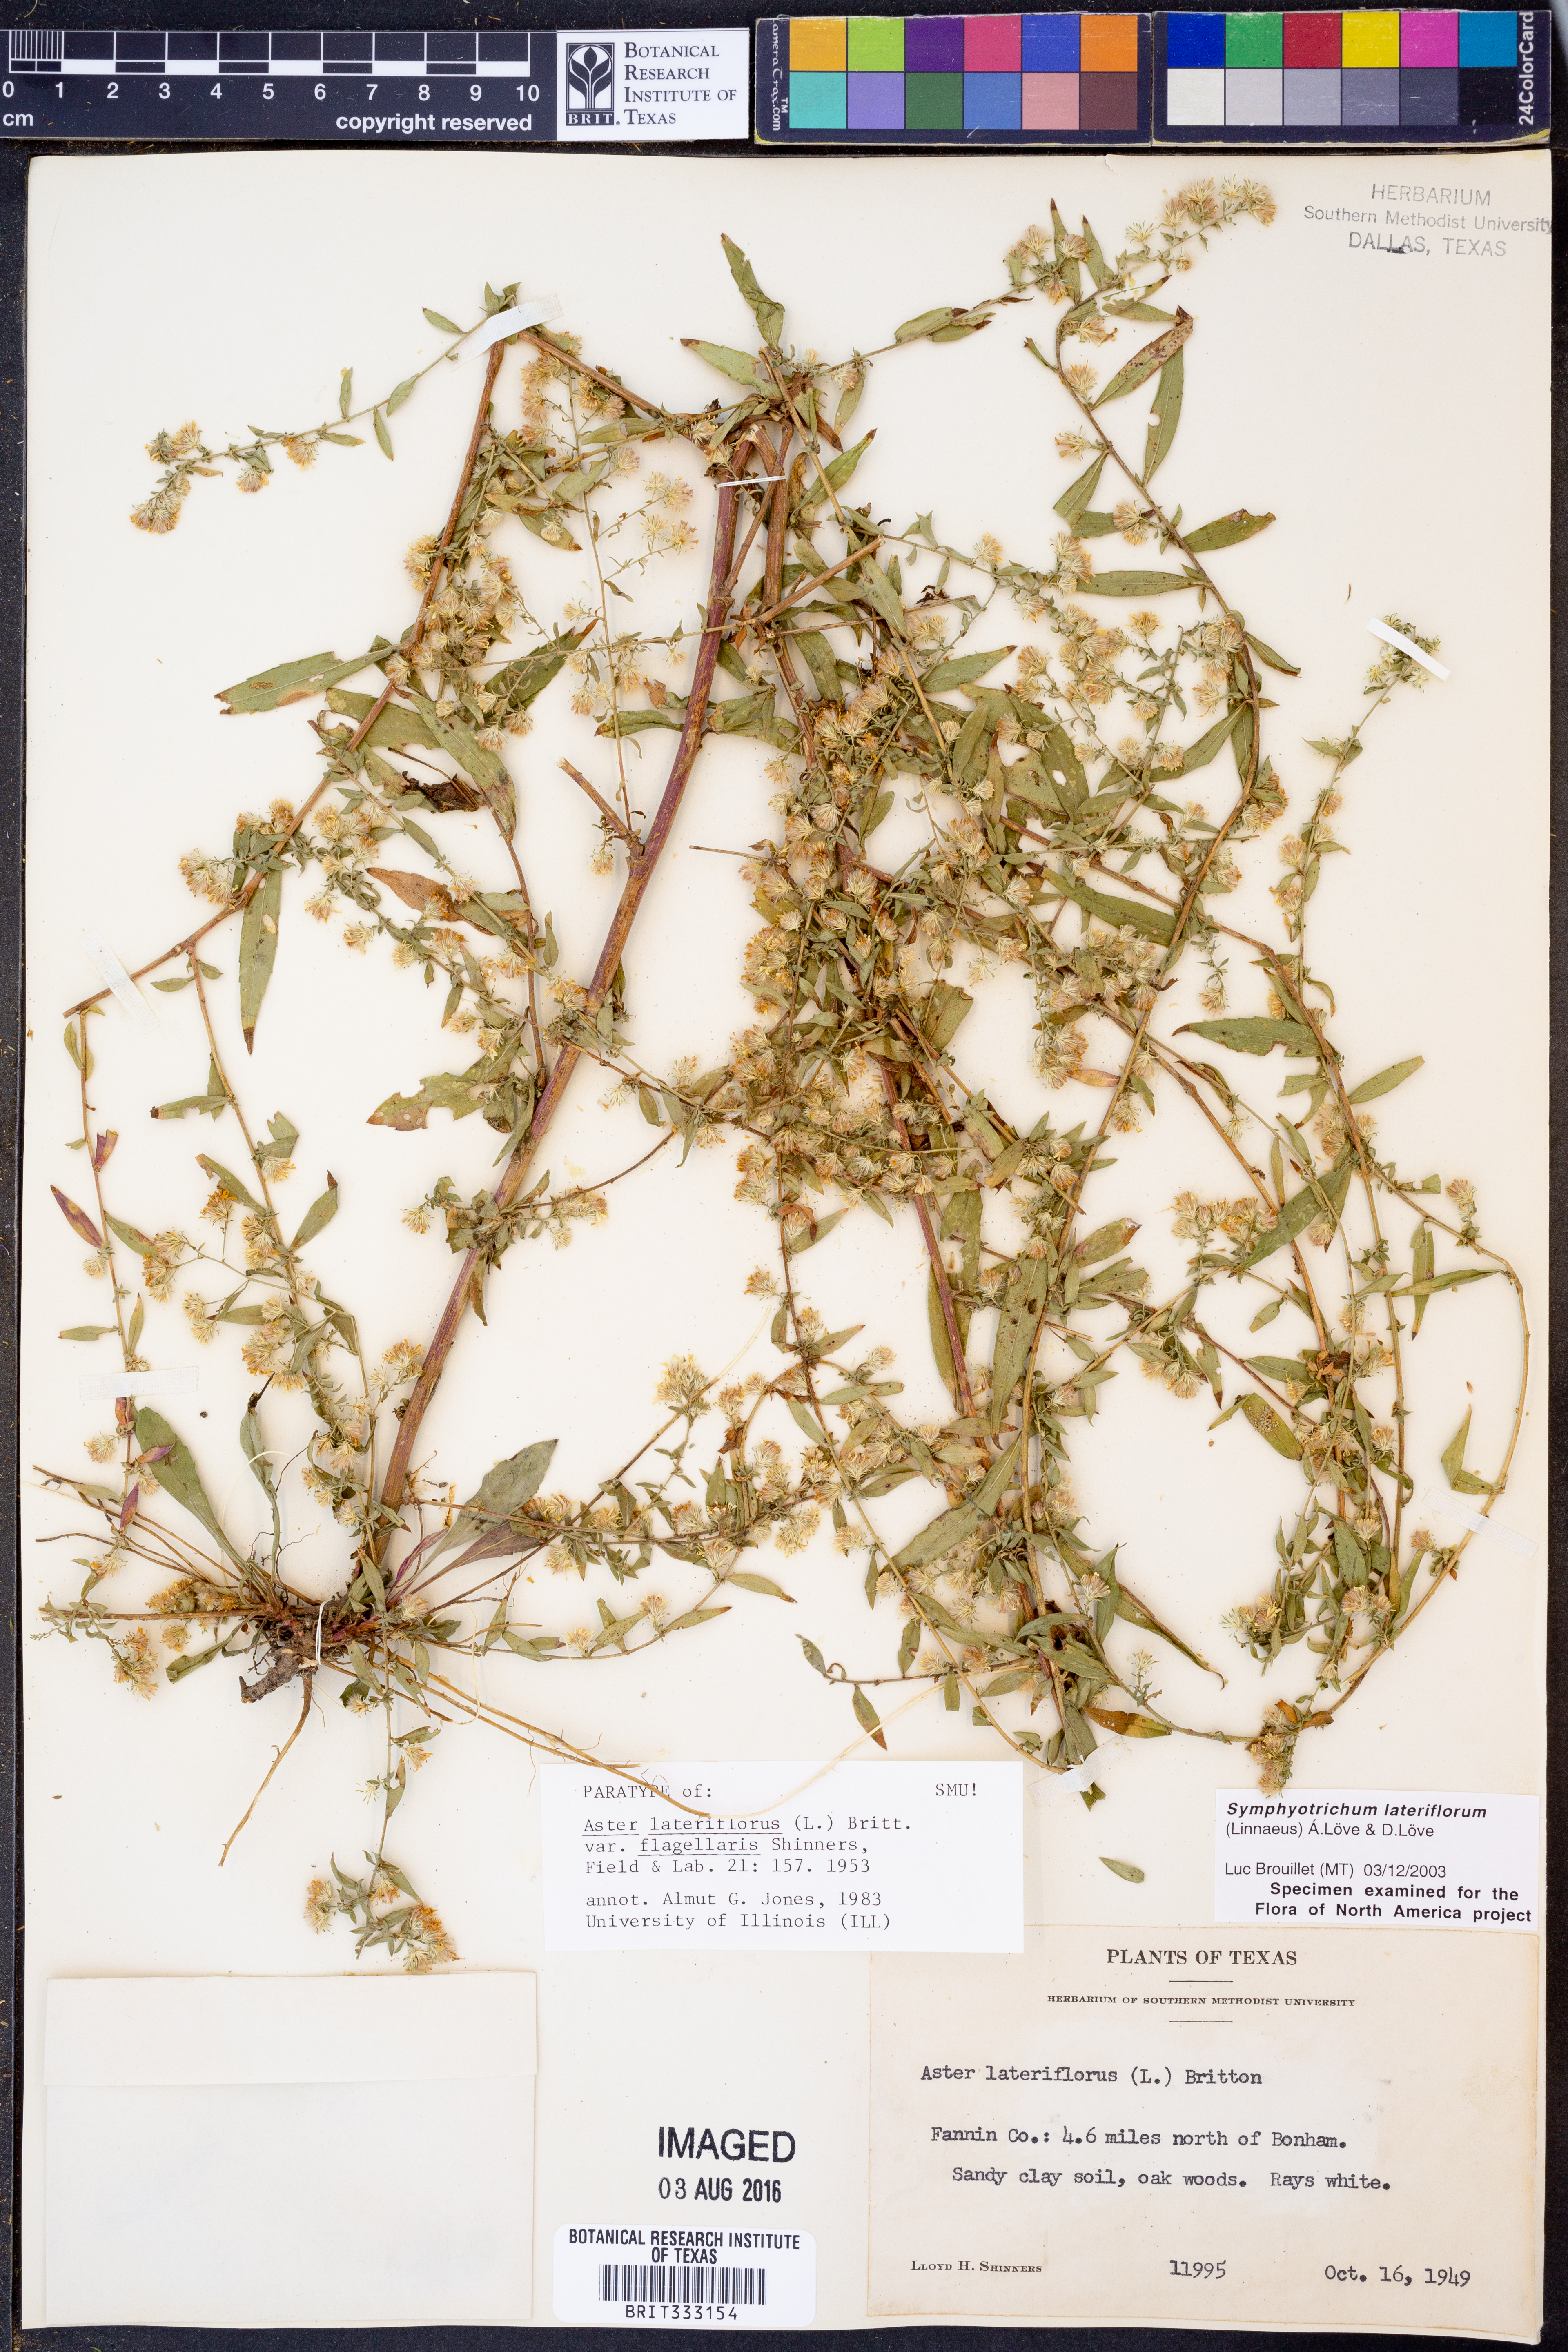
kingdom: Plantae
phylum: Tracheophyta
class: Magnoliopsida
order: Asterales
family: Asteraceae
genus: Symphyotrichum
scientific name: Symphyotrichum lateriflorum
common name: Calico aster
